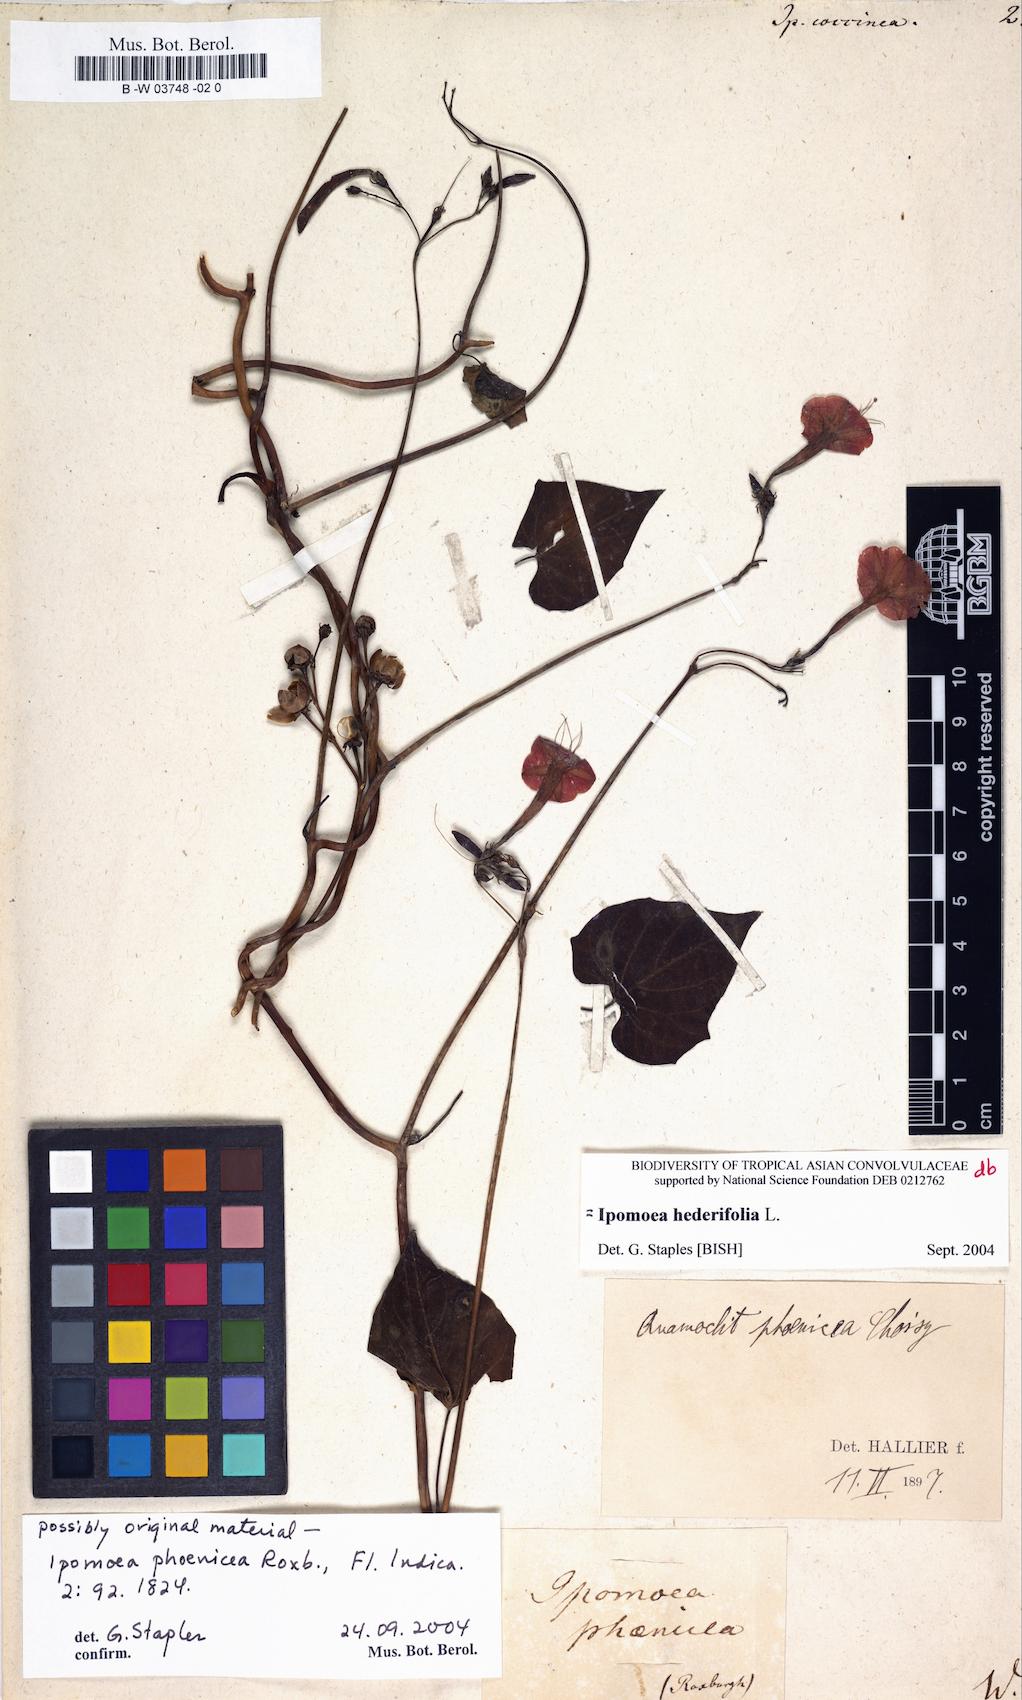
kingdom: Plantae
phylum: Tracheophyta
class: Magnoliopsida
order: Solanales
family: Convolvulaceae
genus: Ipomoea
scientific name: Ipomoea coccinea
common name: Red morning-glory
